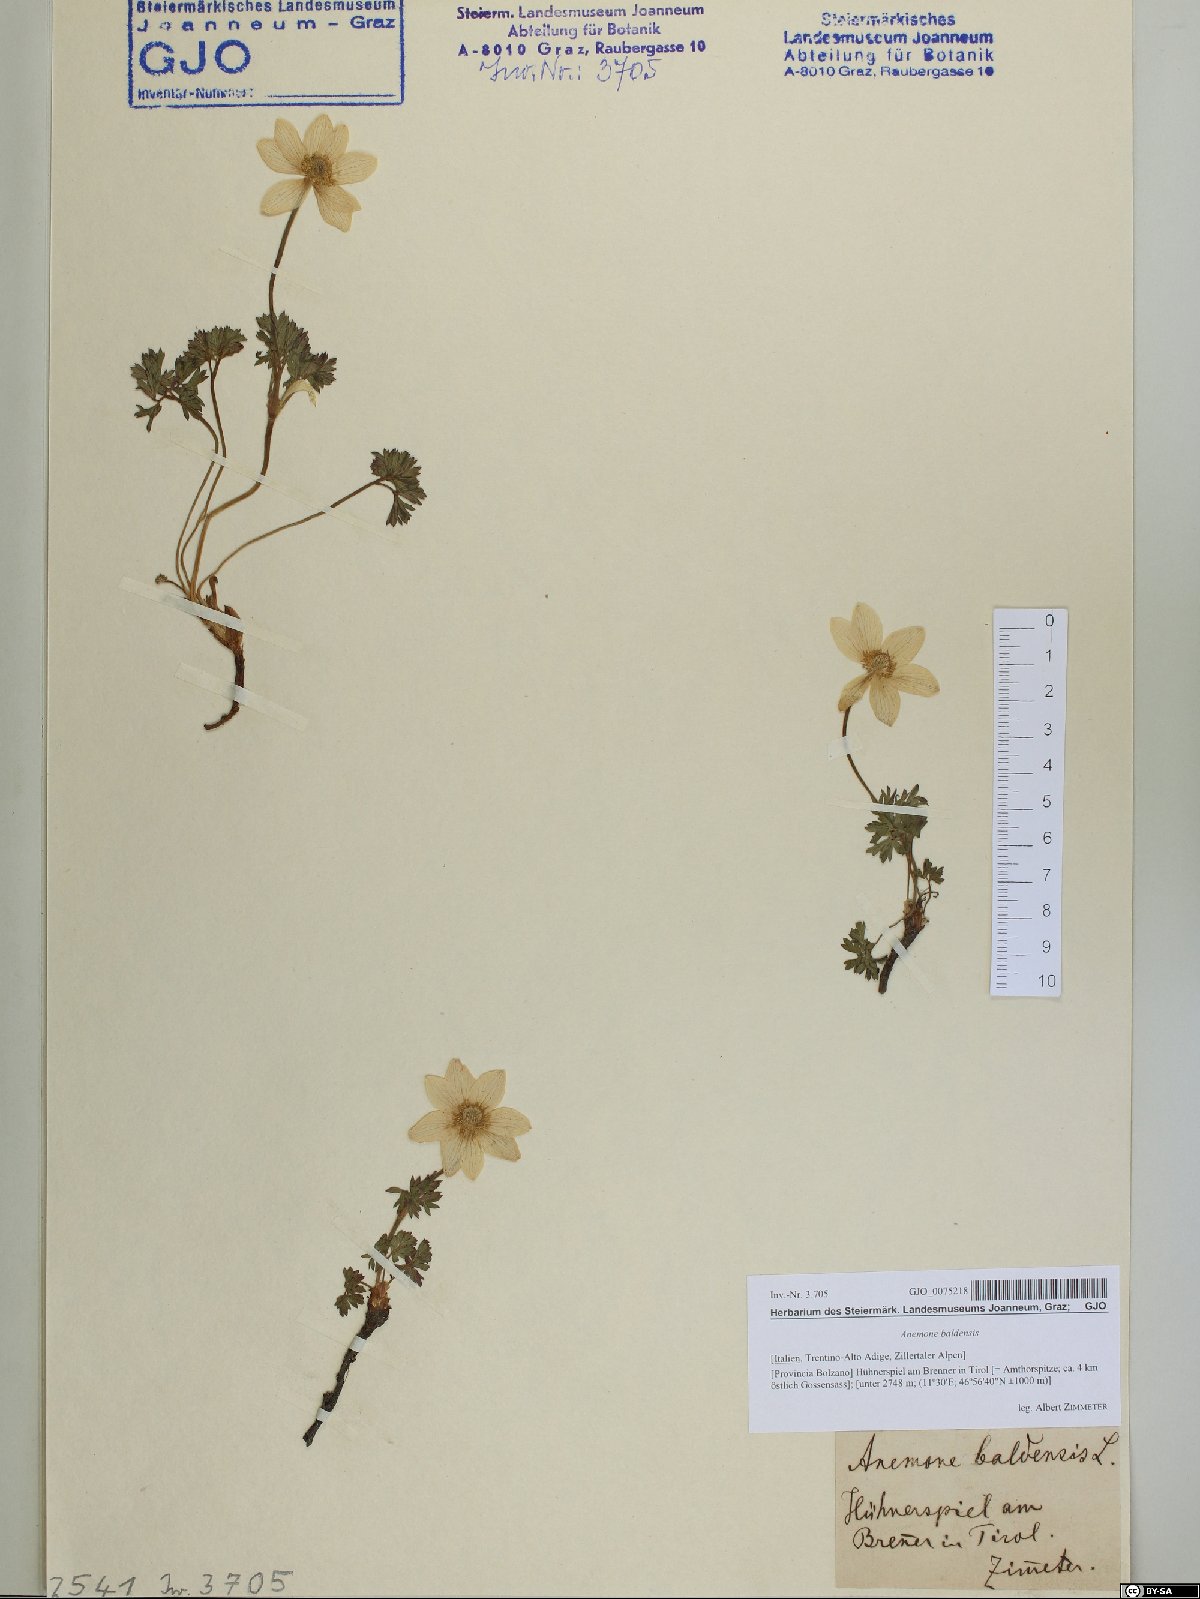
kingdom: Plantae
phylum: Tracheophyta
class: Magnoliopsida
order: Ranunculales
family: Ranunculaceae
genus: Anemone
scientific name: Anemone baldensis
